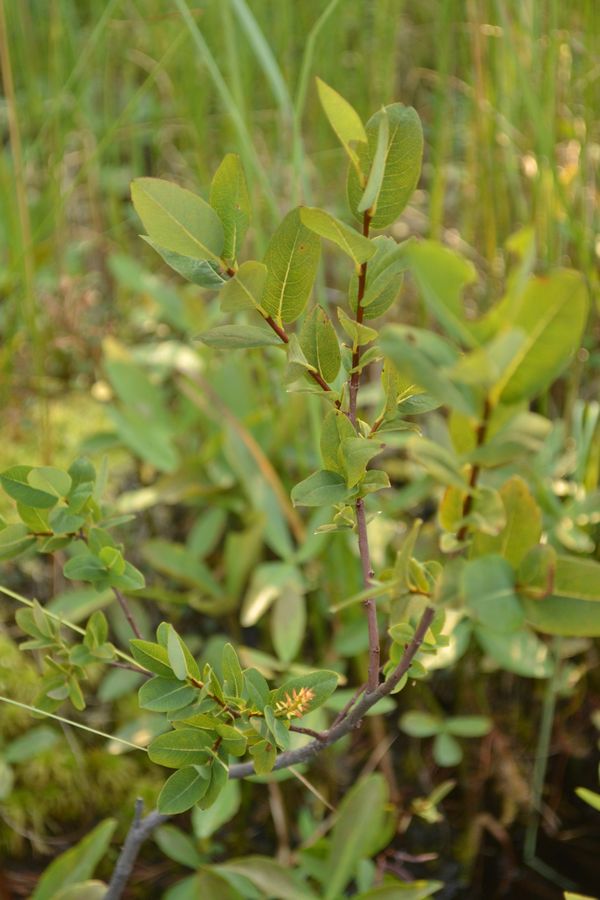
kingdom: Plantae
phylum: Tracheophyta
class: Magnoliopsida
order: Malpighiales
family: Salicaceae
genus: Salix
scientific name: Salix myrtilloides
